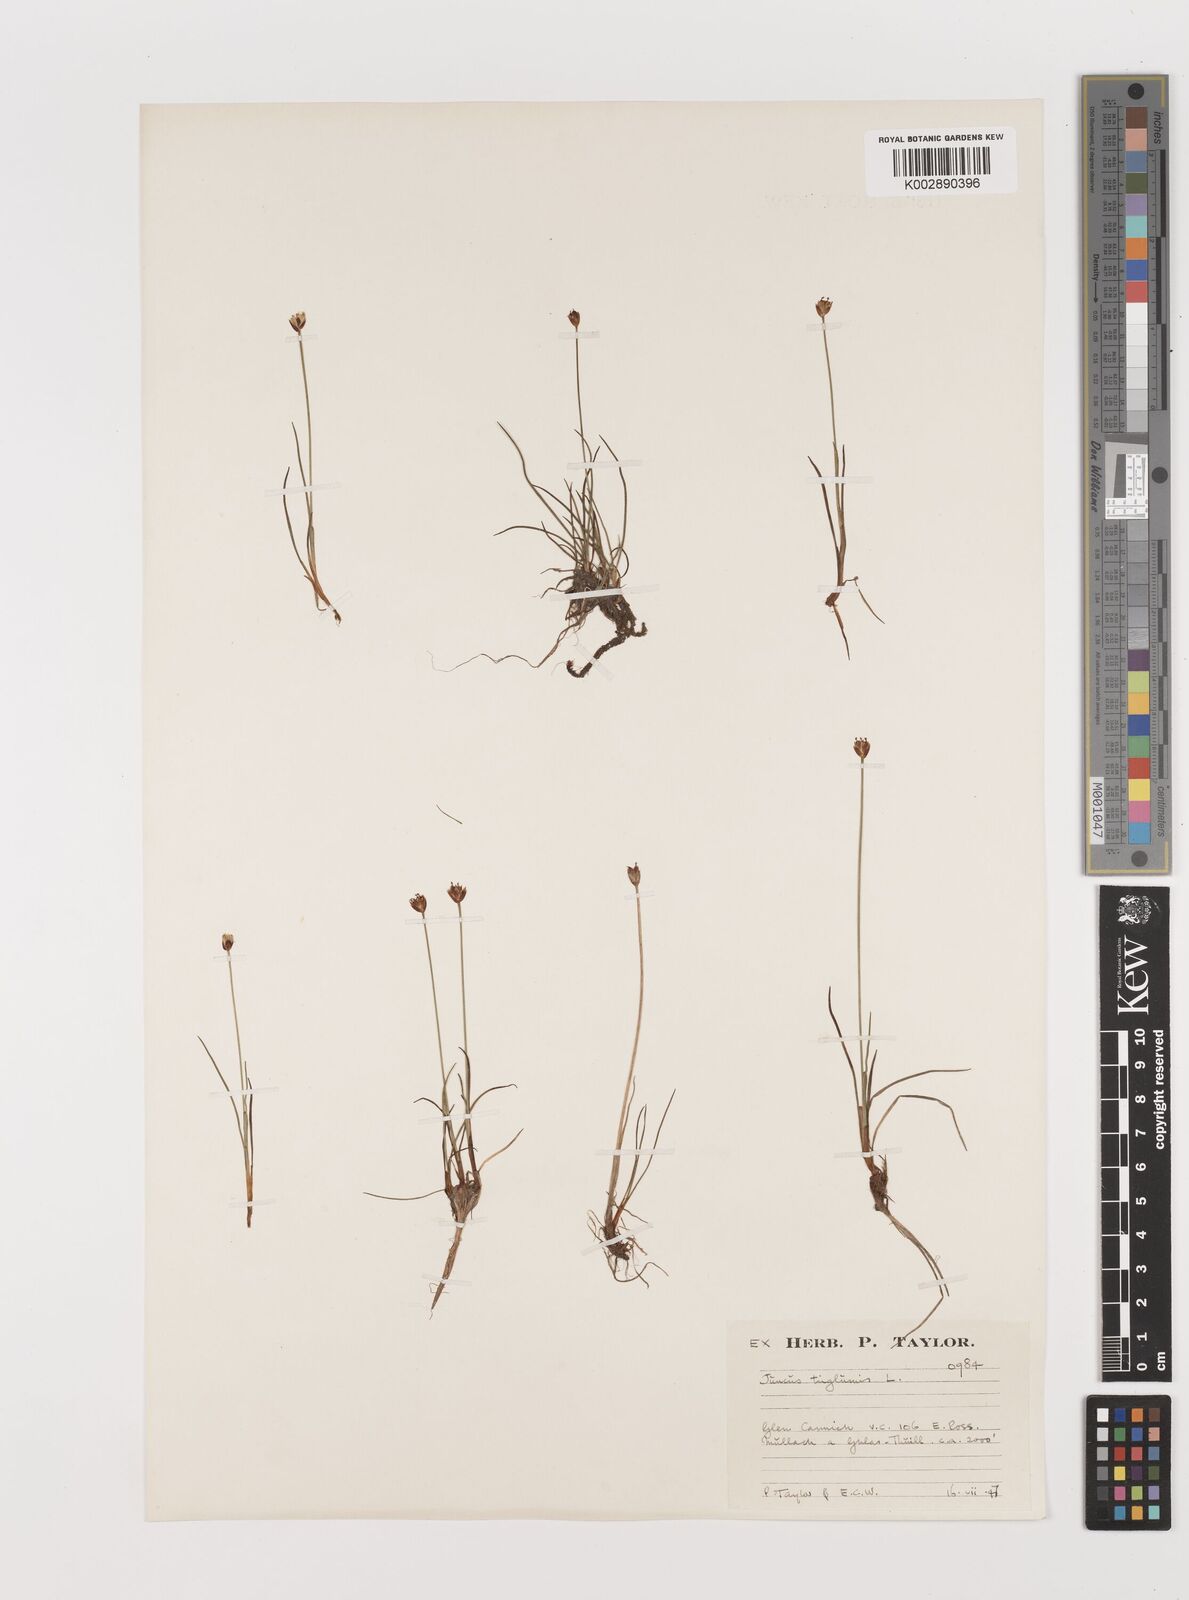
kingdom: Plantae
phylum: Tracheophyta
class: Liliopsida
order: Poales
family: Juncaceae
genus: Juncus
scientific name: Juncus triglumis
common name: Three-flowered rush
